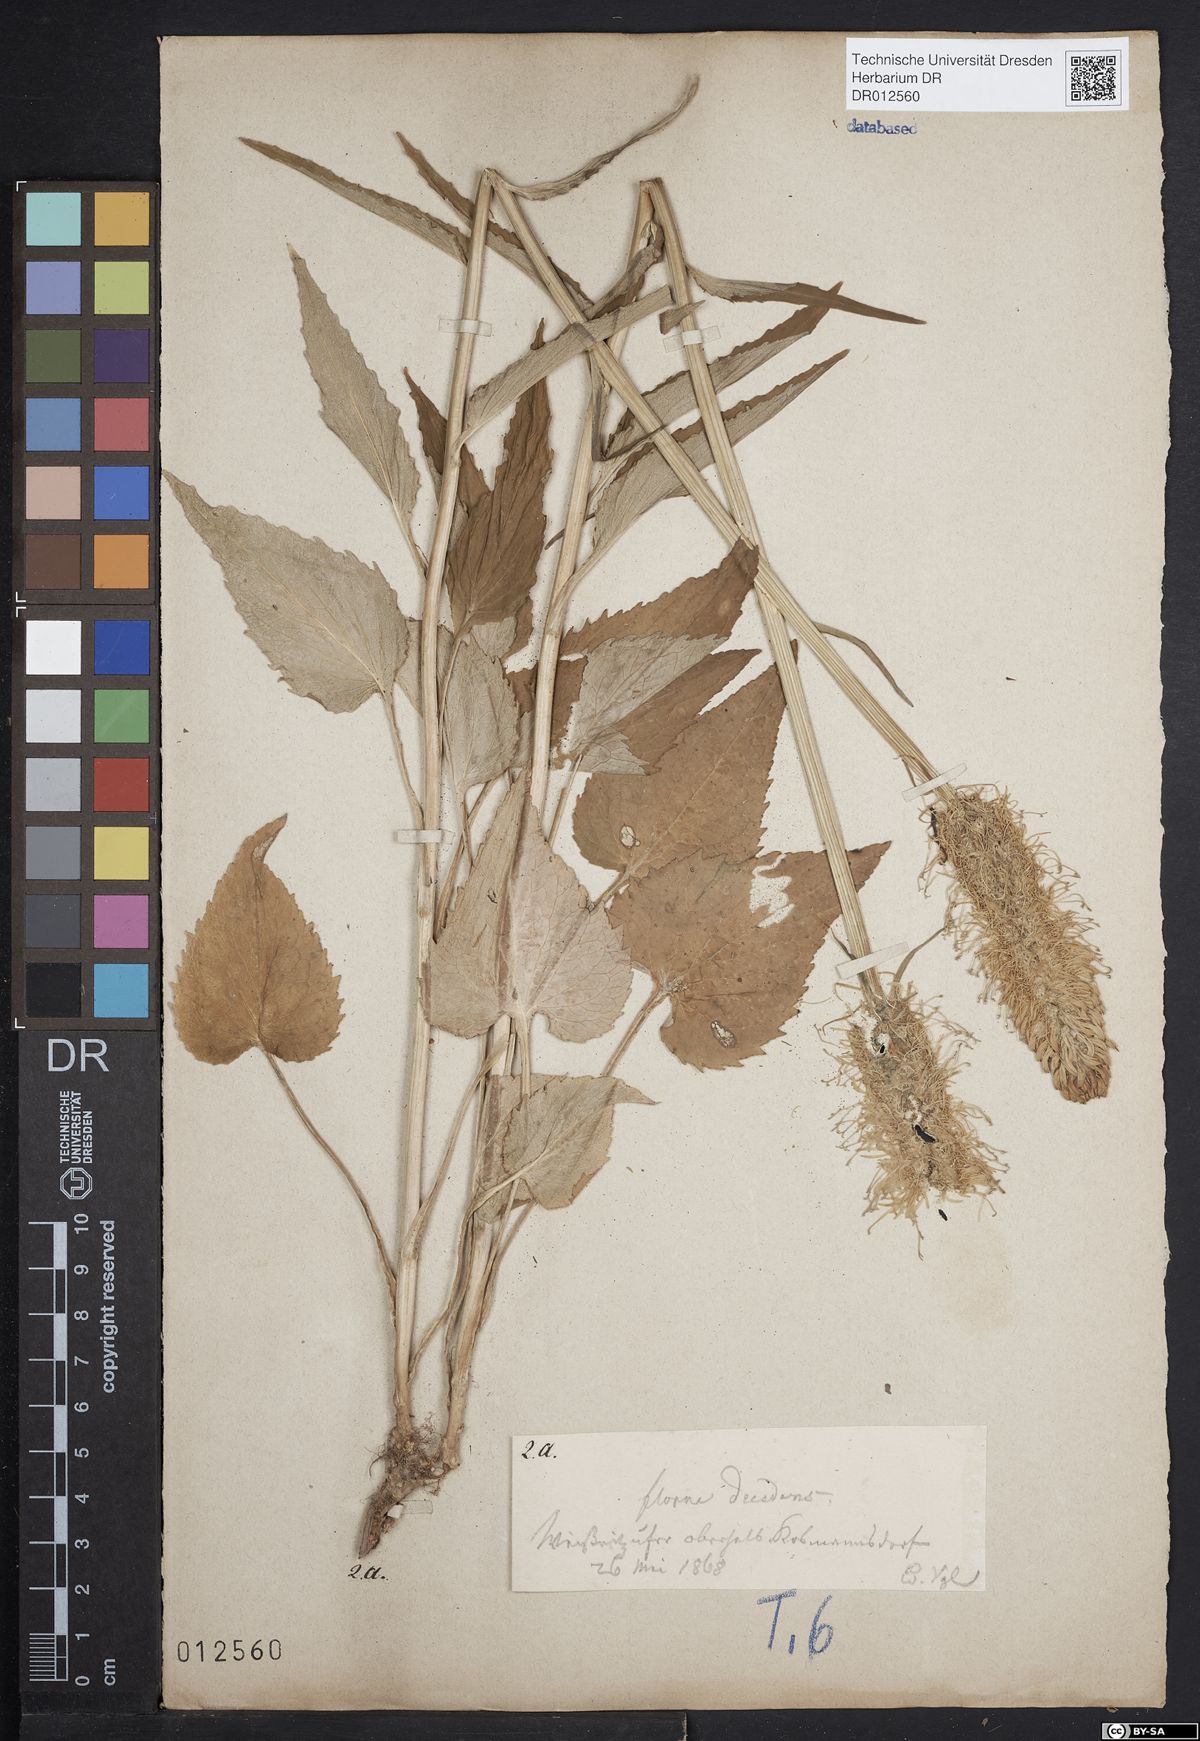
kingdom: Plantae
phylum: Tracheophyta
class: Magnoliopsida
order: Asterales
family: Campanulaceae
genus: Phyteuma
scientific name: Phyteuma spicatum
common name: Spiked rampion
